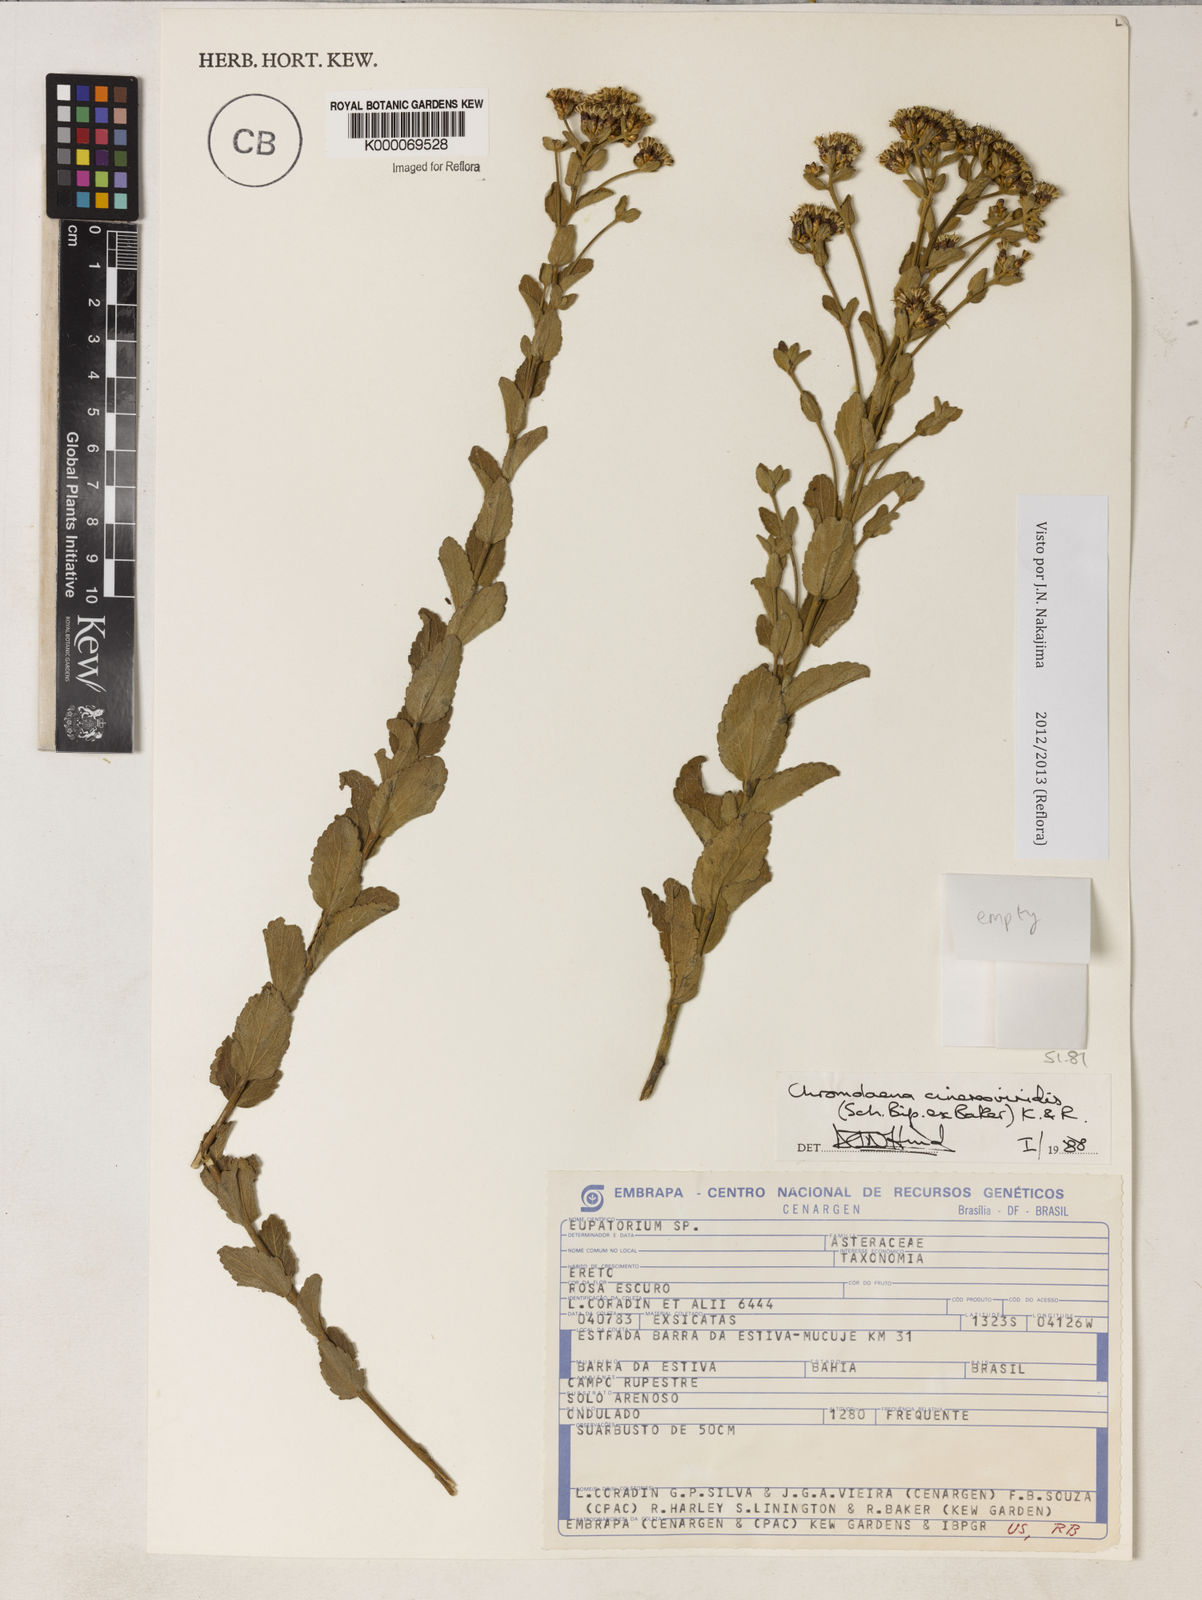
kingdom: Plantae
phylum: Tracheophyta
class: Magnoliopsida
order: Asterales
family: Asteraceae
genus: Chromolaena
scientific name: Chromolaena cinereoviridis
